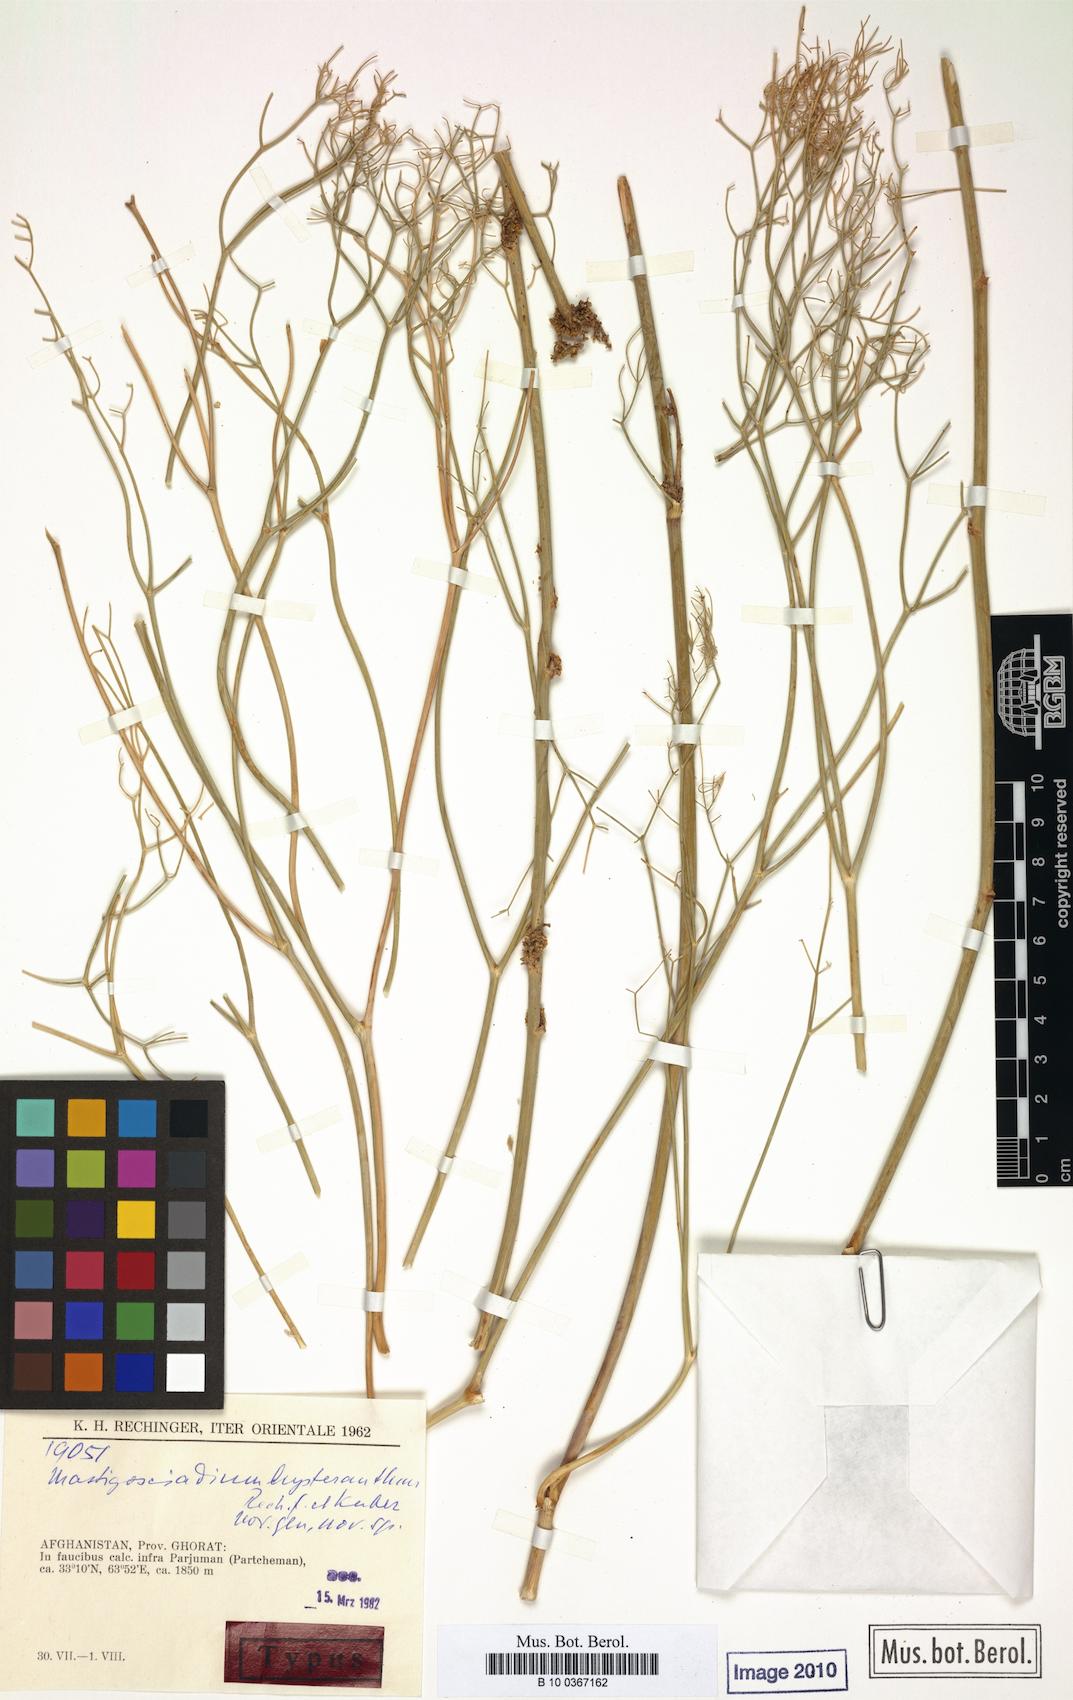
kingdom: Plantae
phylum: Tracheophyta
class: Magnoliopsida
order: Apiales
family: Apiaceae
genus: Mastigosciadium
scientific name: Mastigosciadium hysteranthum
